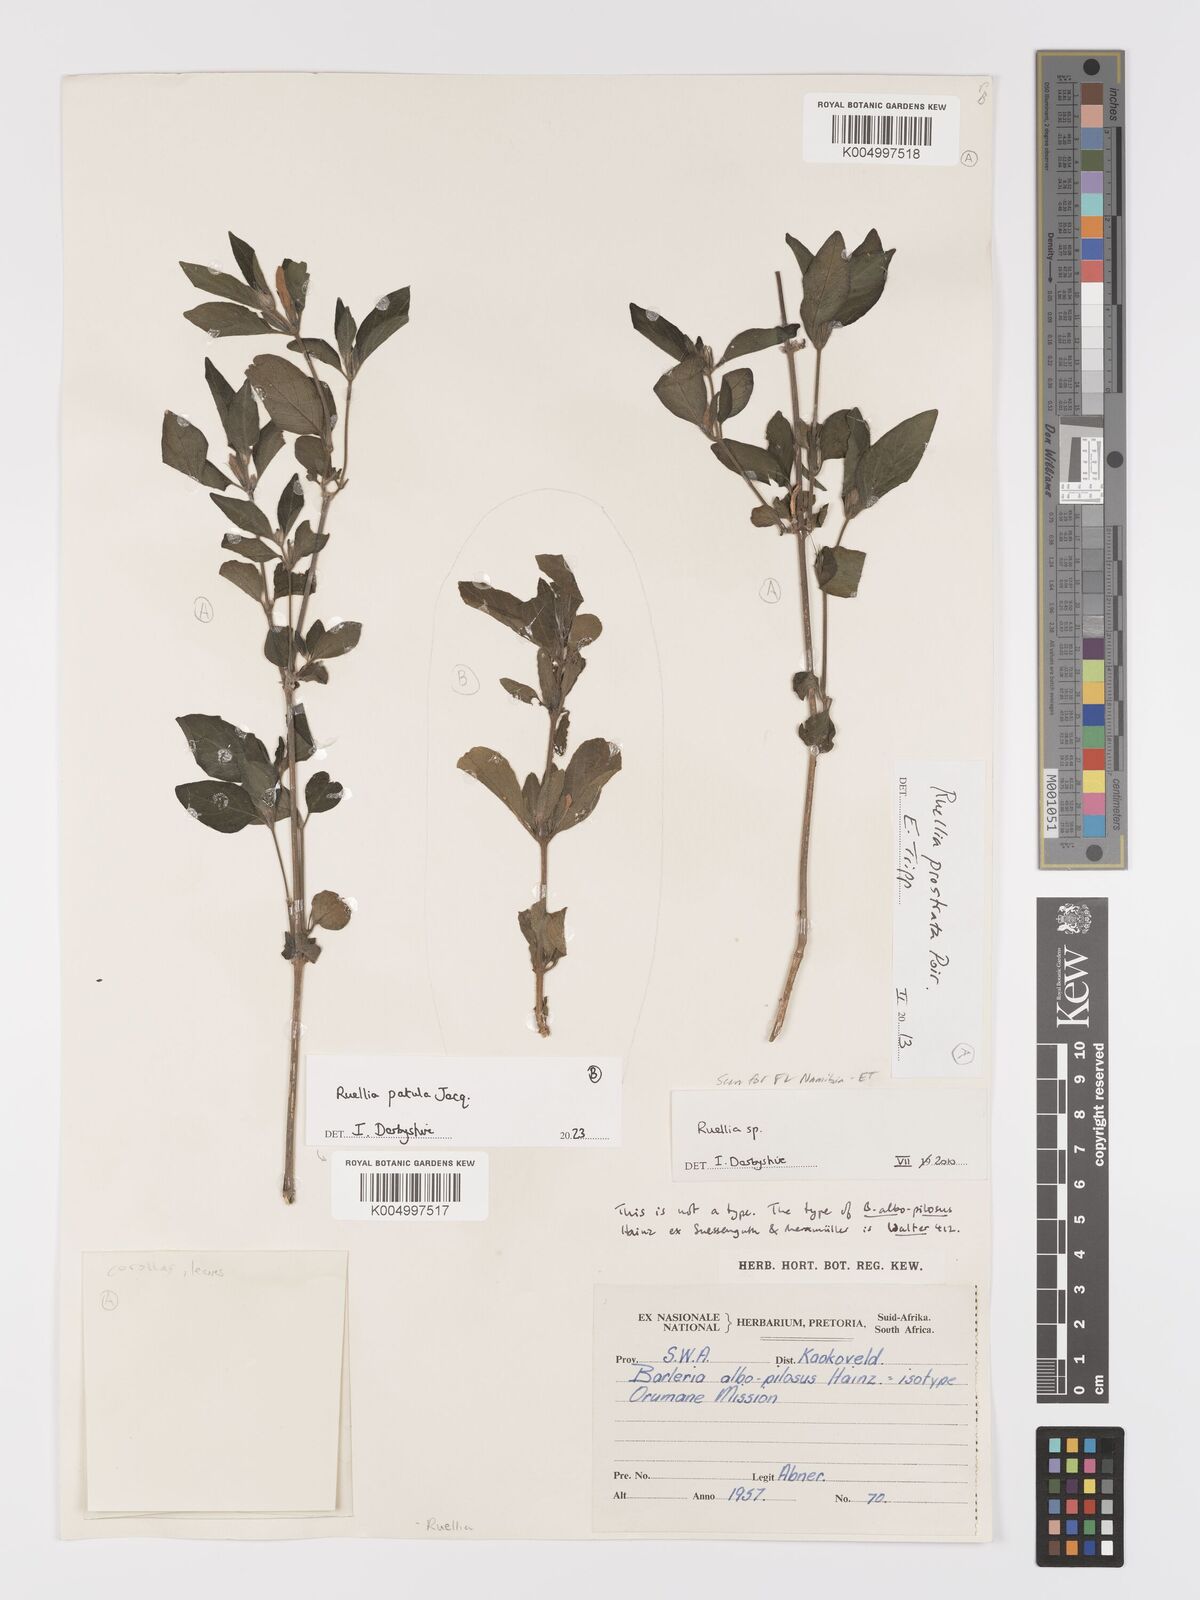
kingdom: Plantae
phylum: Tracheophyta
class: Magnoliopsida
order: Lamiales
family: Acanthaceae
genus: Ruellia
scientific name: Ruellia
